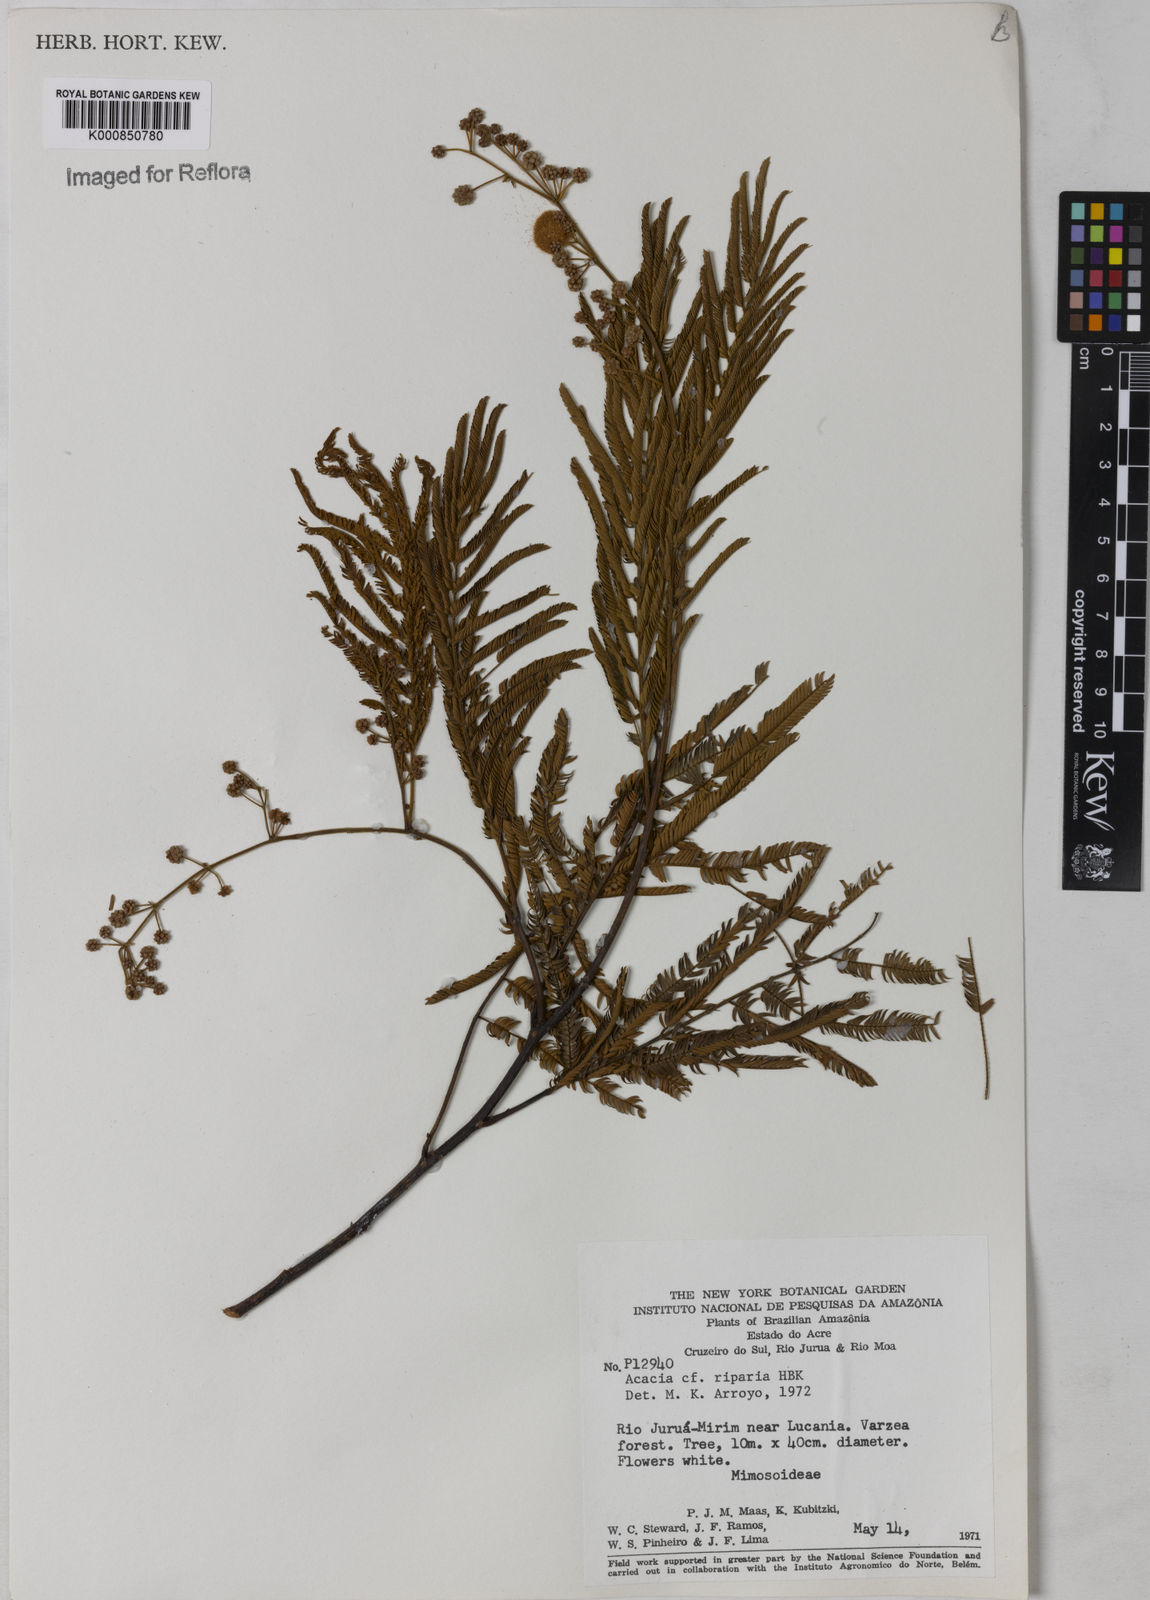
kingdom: Plantae
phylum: Tracheophyta
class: Magnoliopsida
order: Fabales
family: Fabaceae
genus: Senegalia
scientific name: Senegalia riparia
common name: Catch-and-keep
